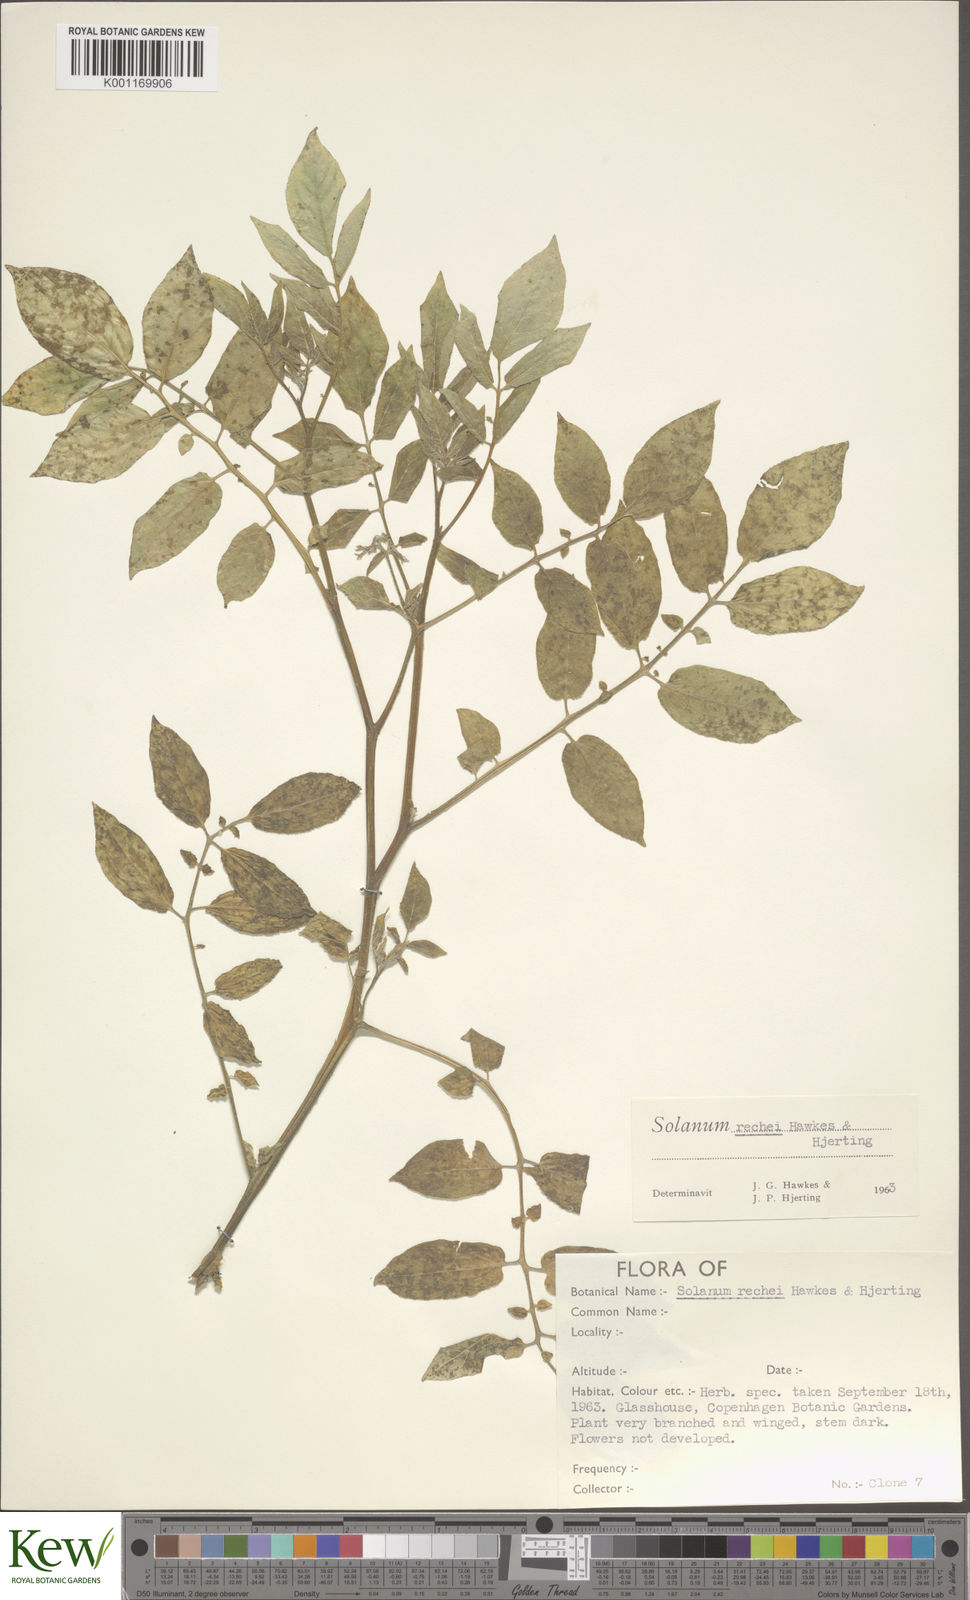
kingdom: Plantae
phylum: Tracheophyta
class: Magnoliopsida
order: Solanales
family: Solanaceae
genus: Solanum
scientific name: Solanum rechei
